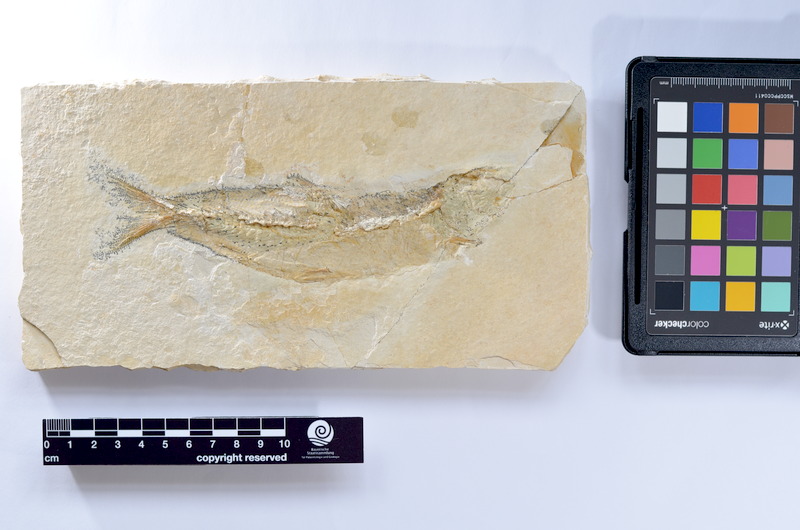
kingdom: Animalia
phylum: Chordata
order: Elopiformes
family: Anaethalionidae
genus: Anaethalion
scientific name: Anaethalion knorri
